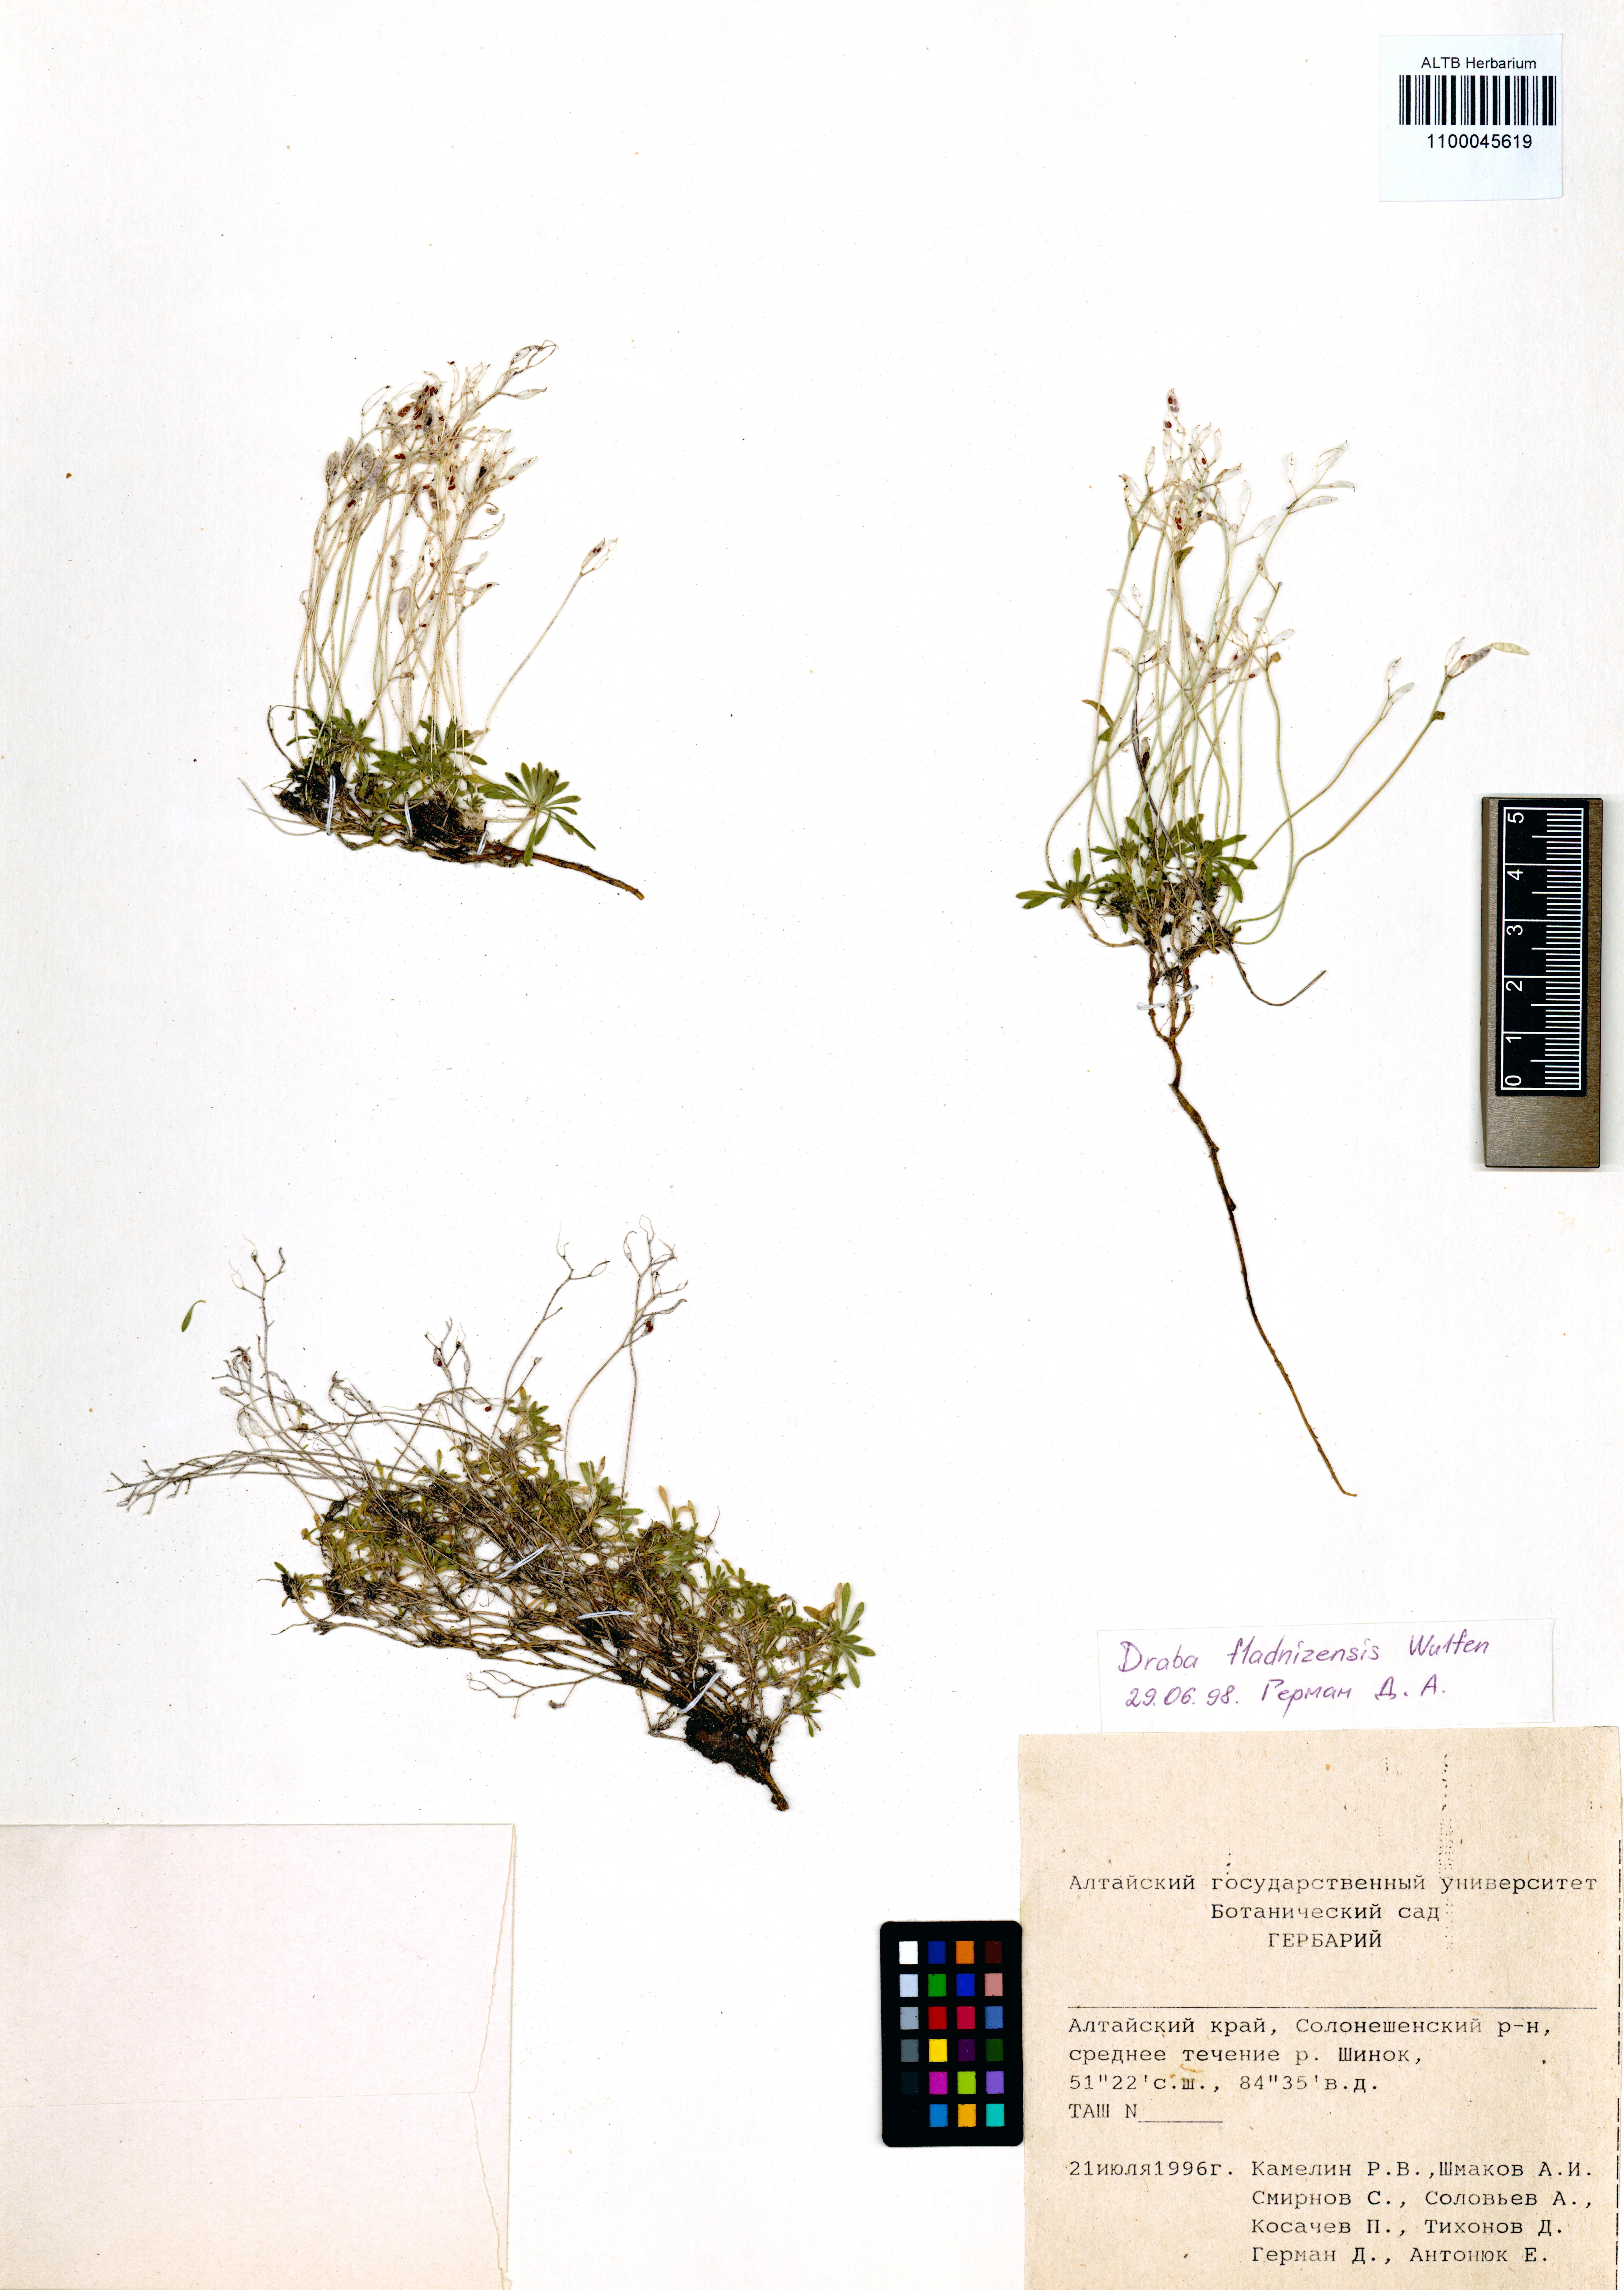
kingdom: Plantae
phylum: Tracheophyta
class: Magnoliopsida
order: Brassicales
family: Brassicaceae
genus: Draba
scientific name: Draba fladnizensis
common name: Austrian draba
